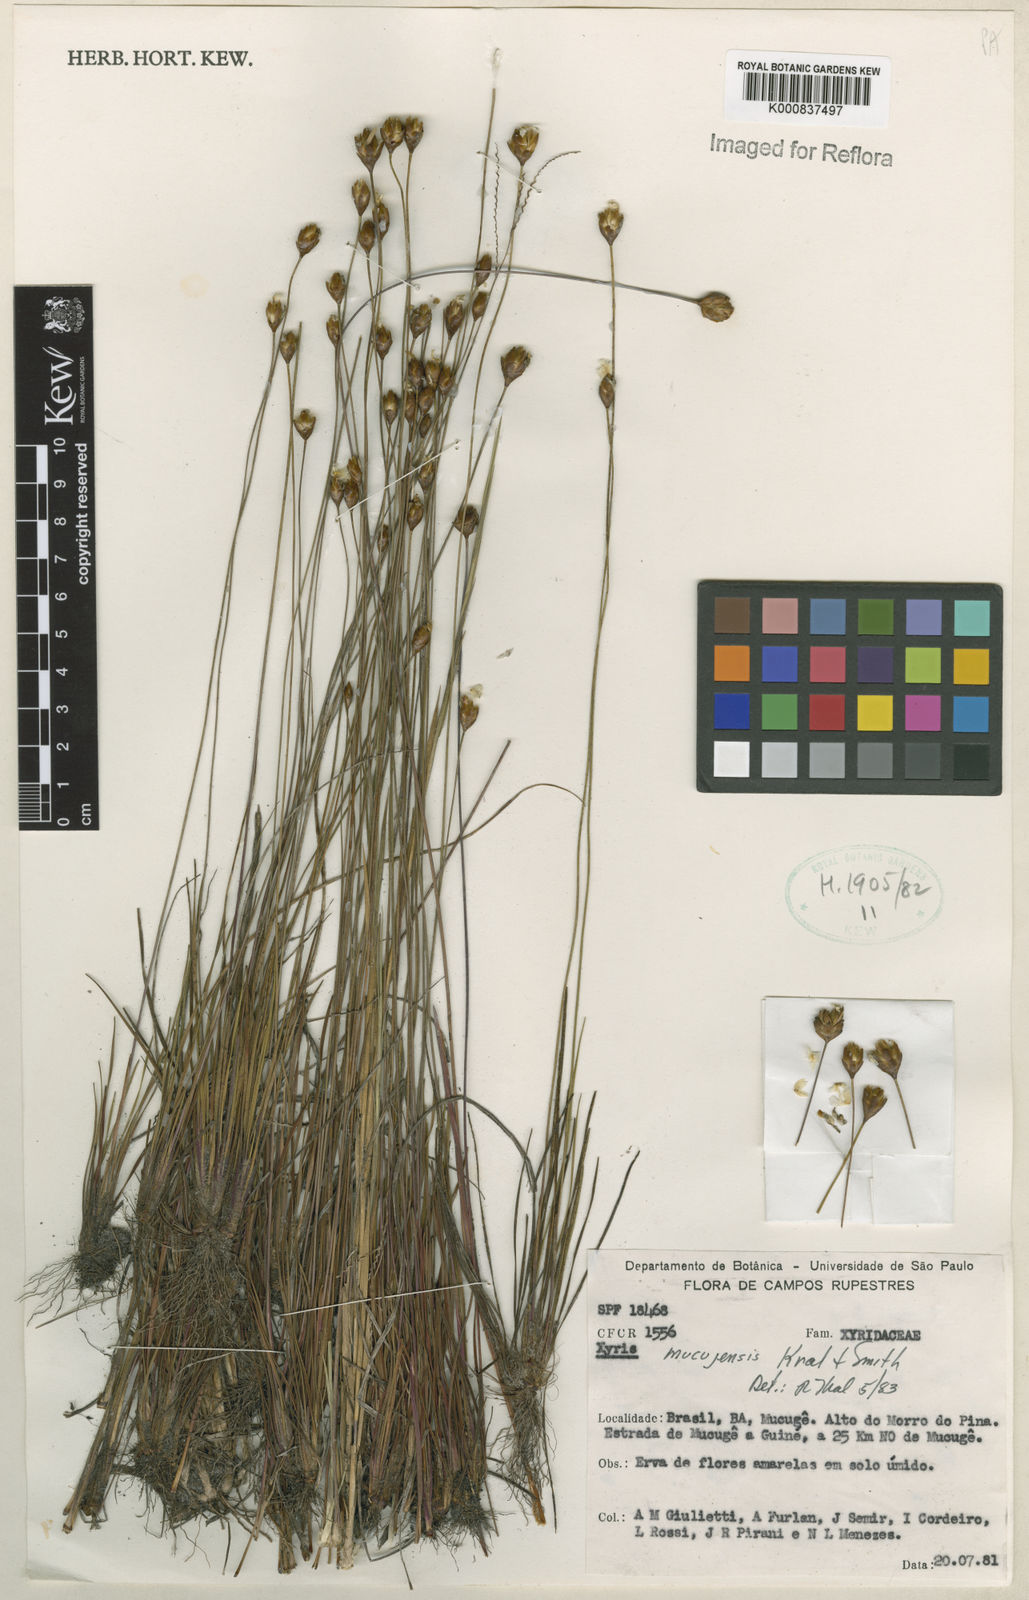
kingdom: Plantae
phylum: Tracheophyta
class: Liliopsida
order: Poales
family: Xyridaceae
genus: Xyris
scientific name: Xyris mucujensis
